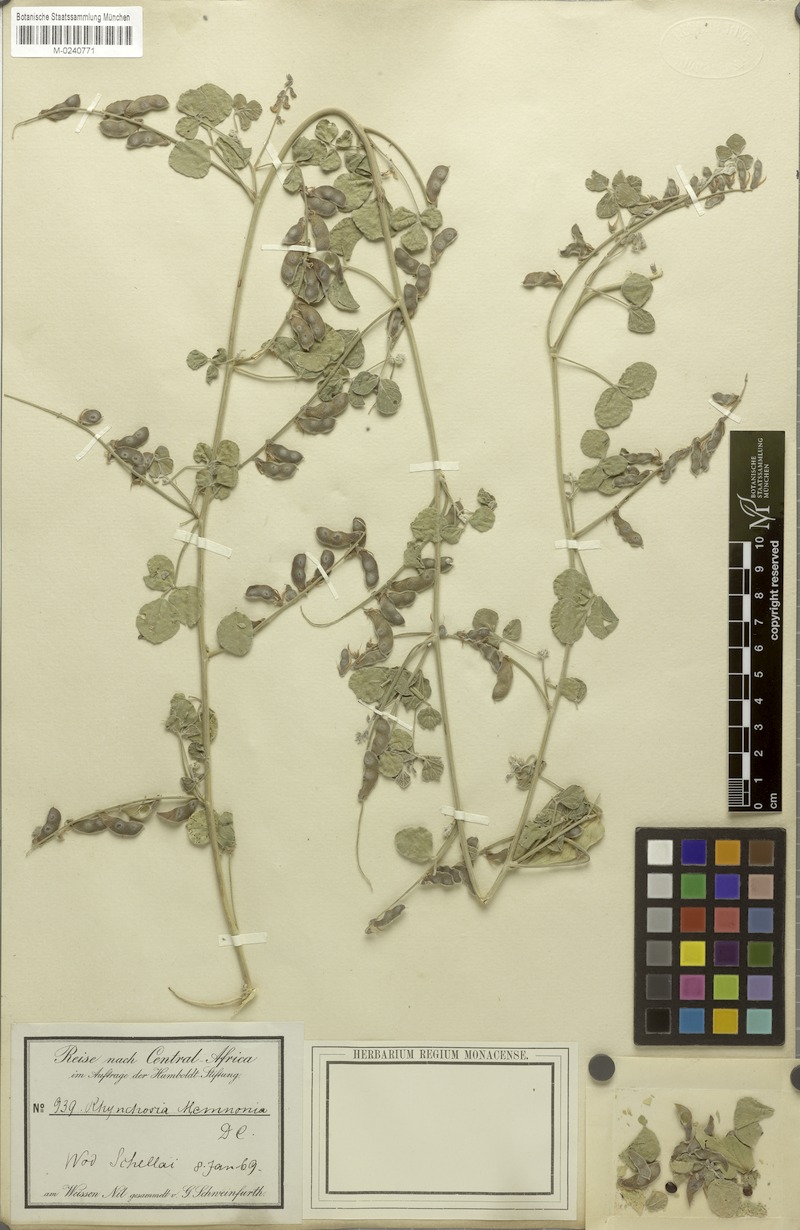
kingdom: Plantae
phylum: Tracheophyta
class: Magnoliopsida
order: Fabales
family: Fabaceae
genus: Rhynchosia
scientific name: Rhynchosia minima
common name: Least snoutbean
